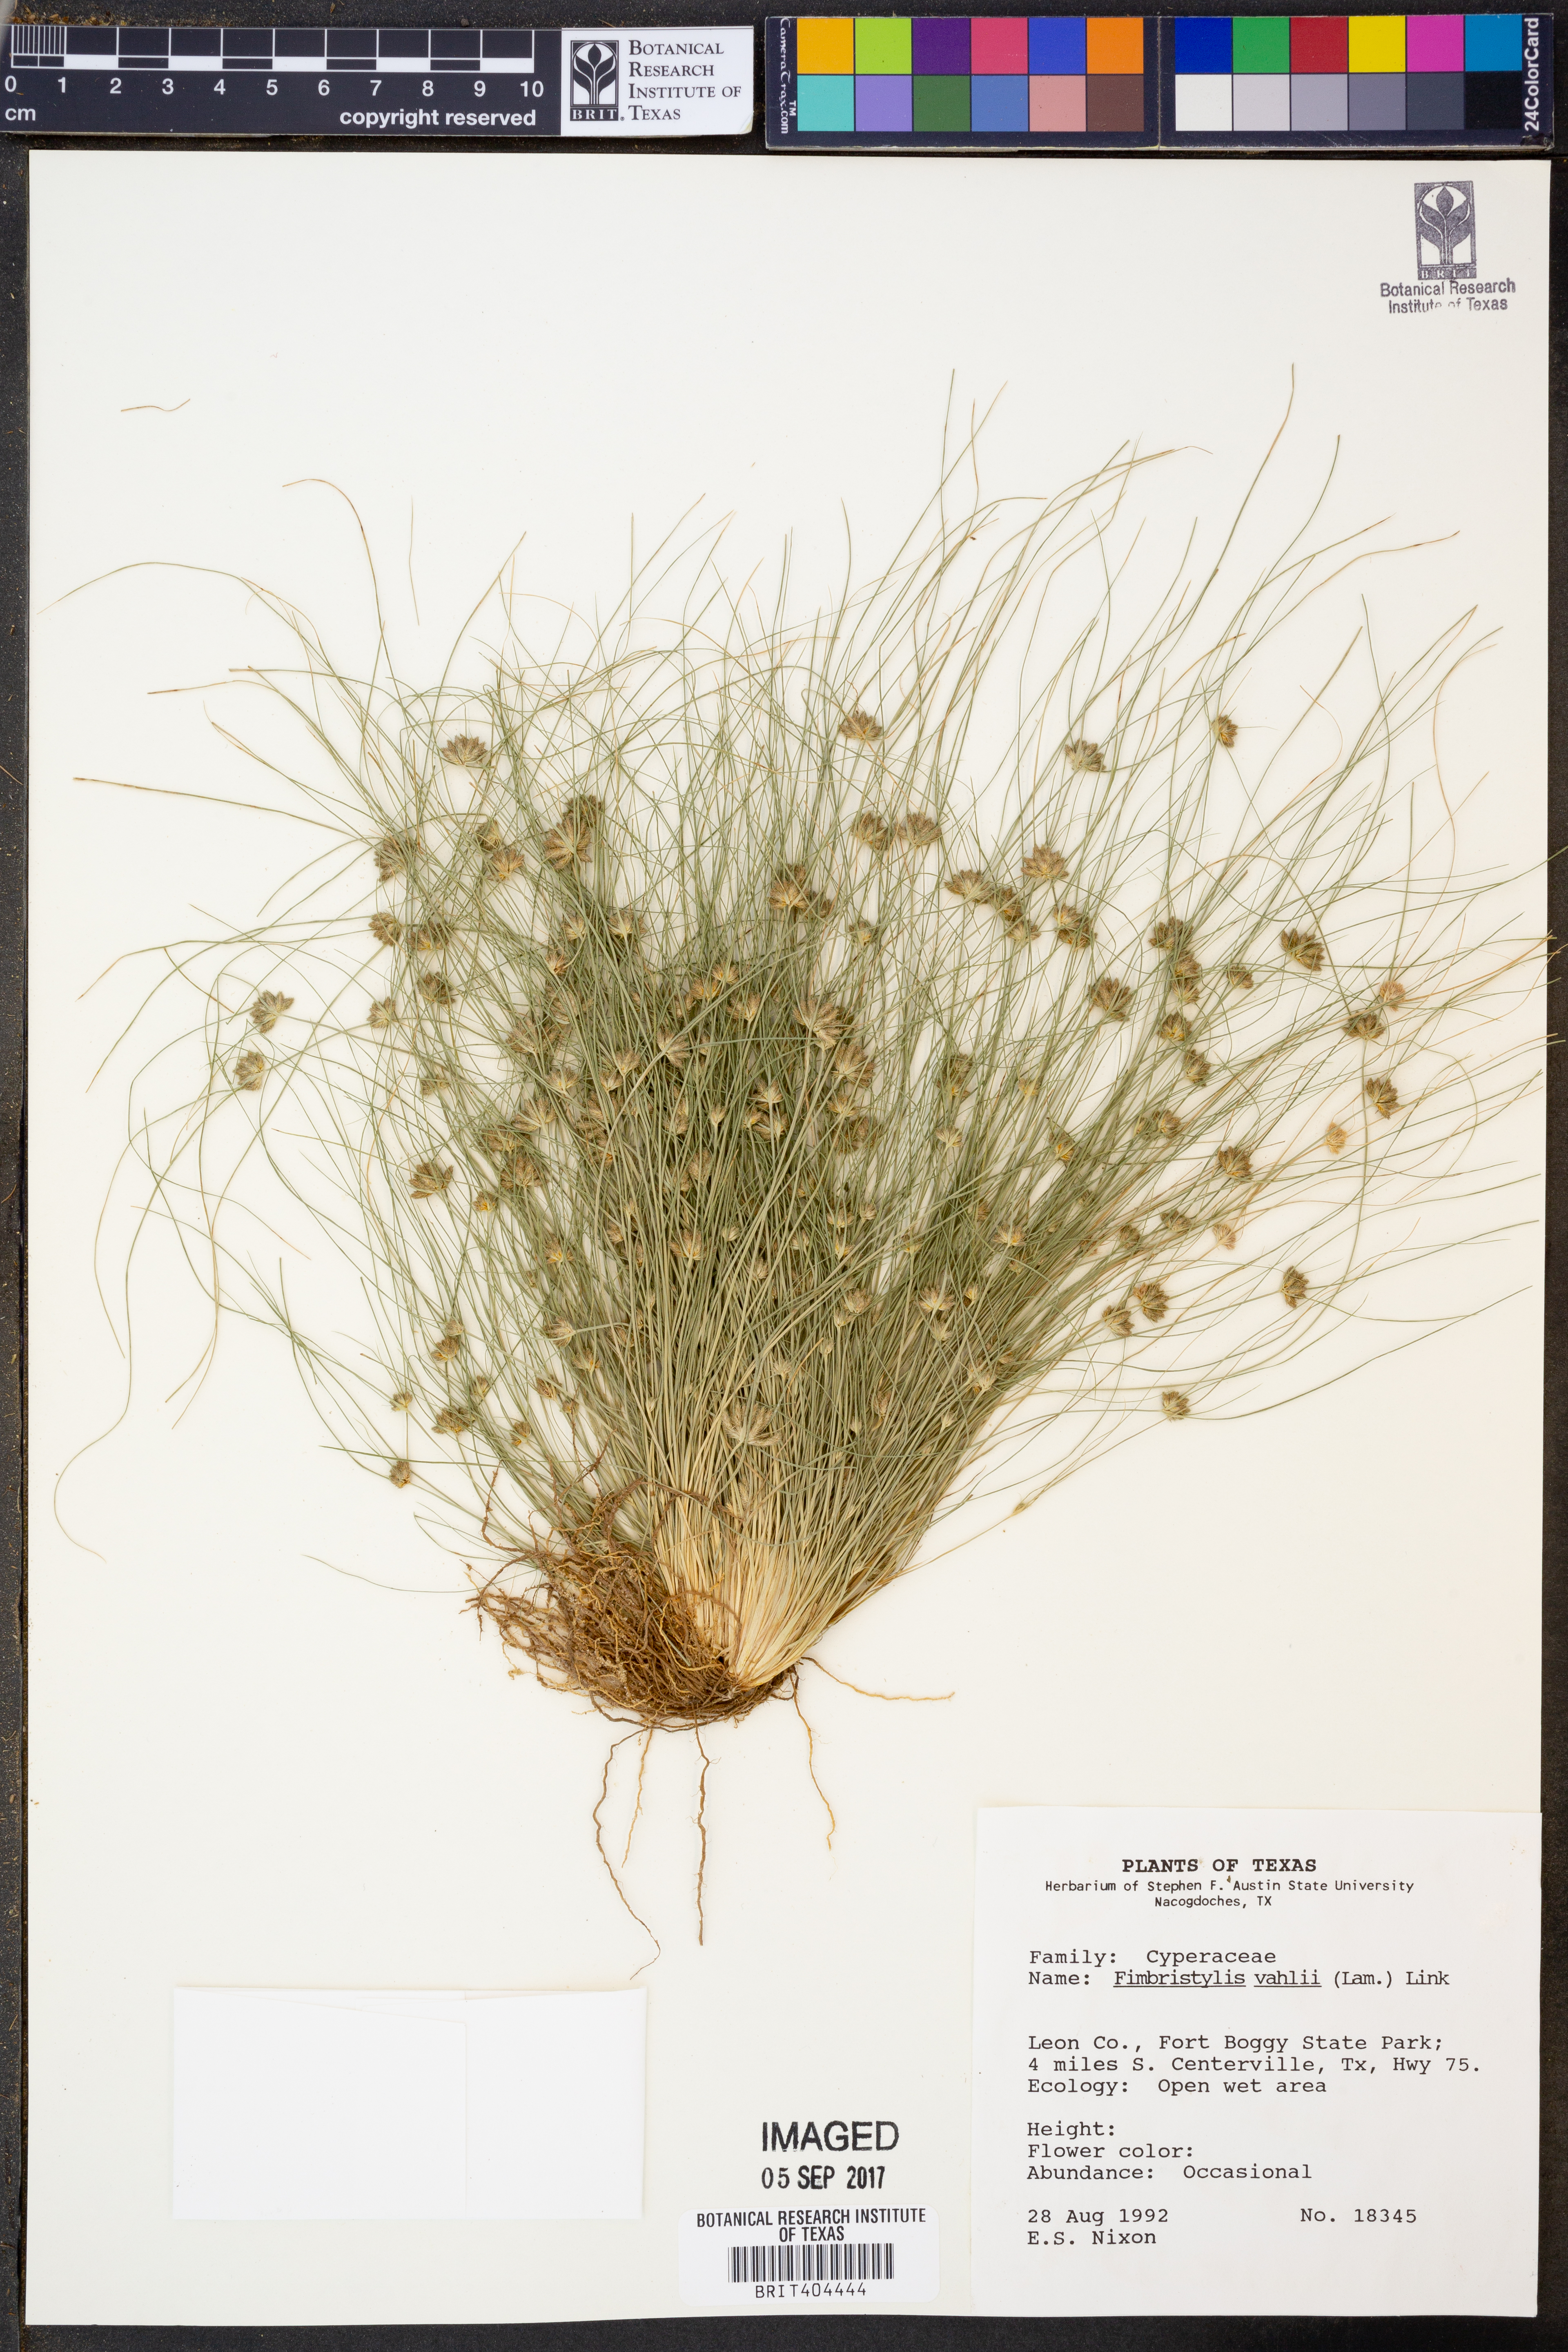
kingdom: Plantae
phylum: Tracheophyta
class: Liliopsida
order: Poales
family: Cyperaceae
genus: Fimbristylis
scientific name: Fimbristylis vahlii
